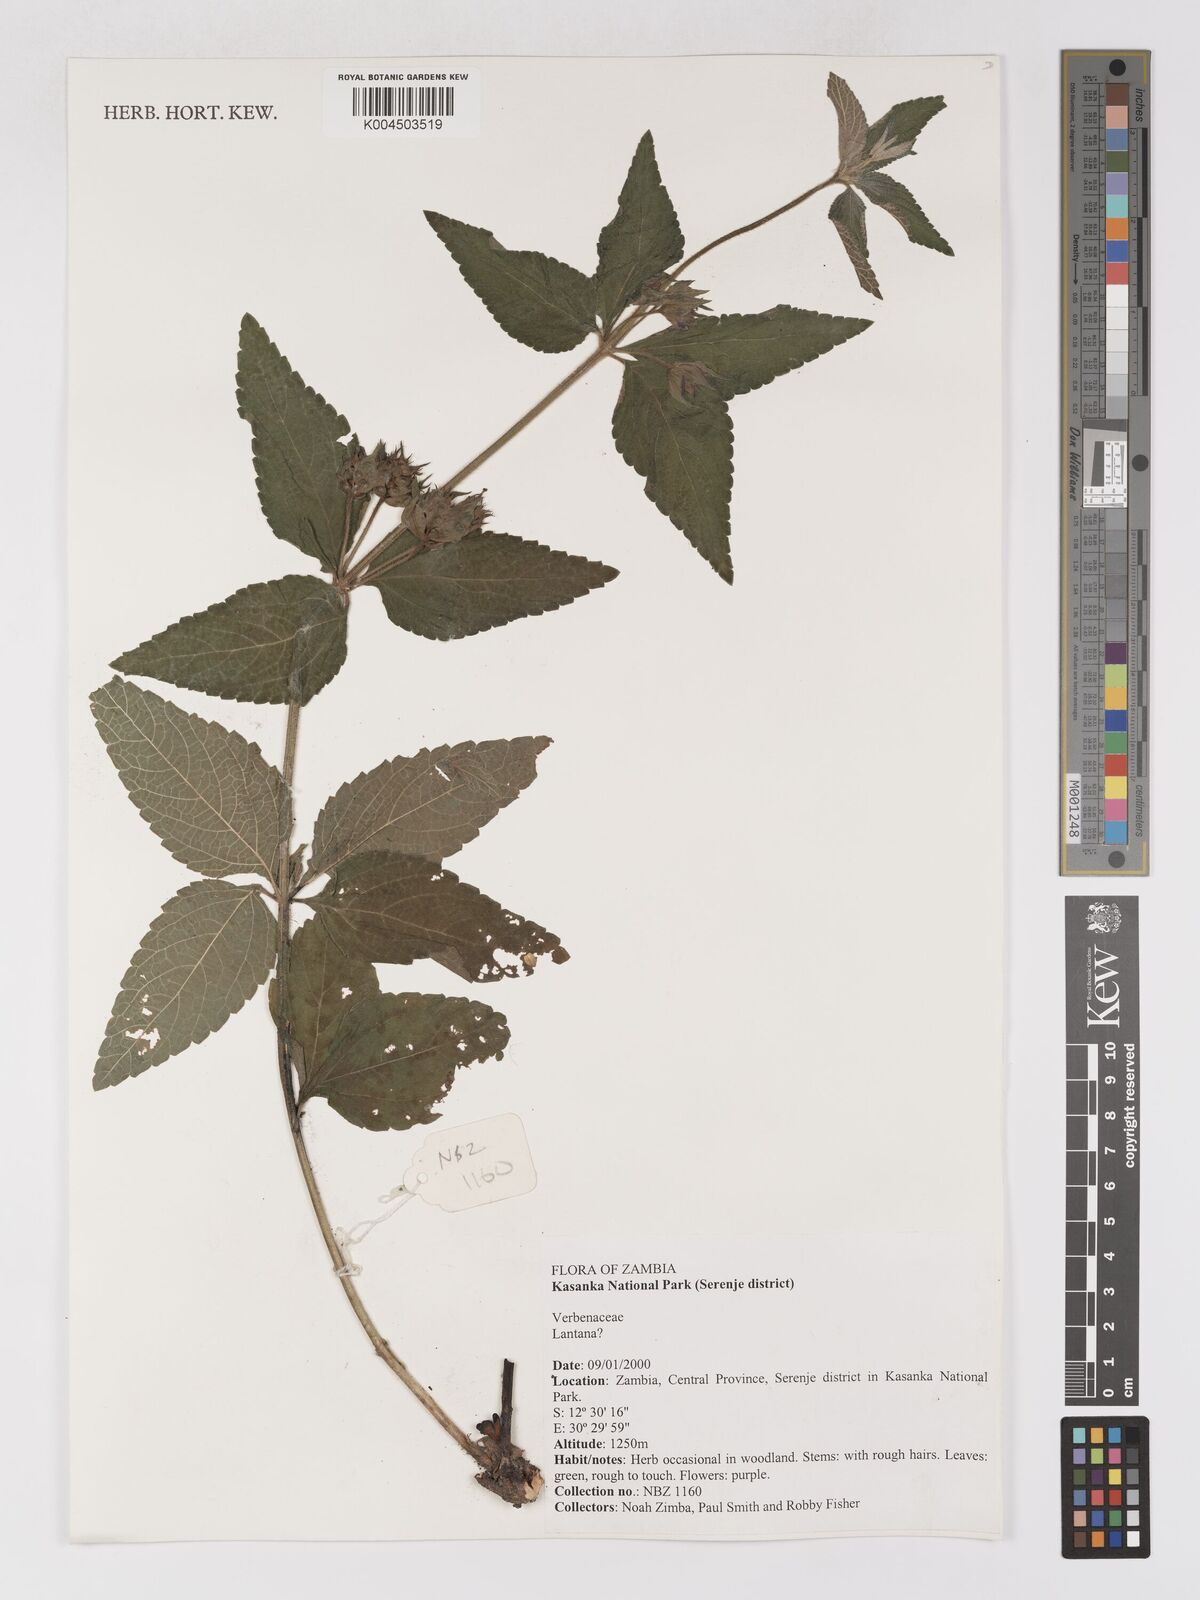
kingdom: Plantae
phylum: Tracheophyta
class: Magnoliopsida
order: Lamiales
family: Verbenaceae
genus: Lantana
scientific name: Lantana
